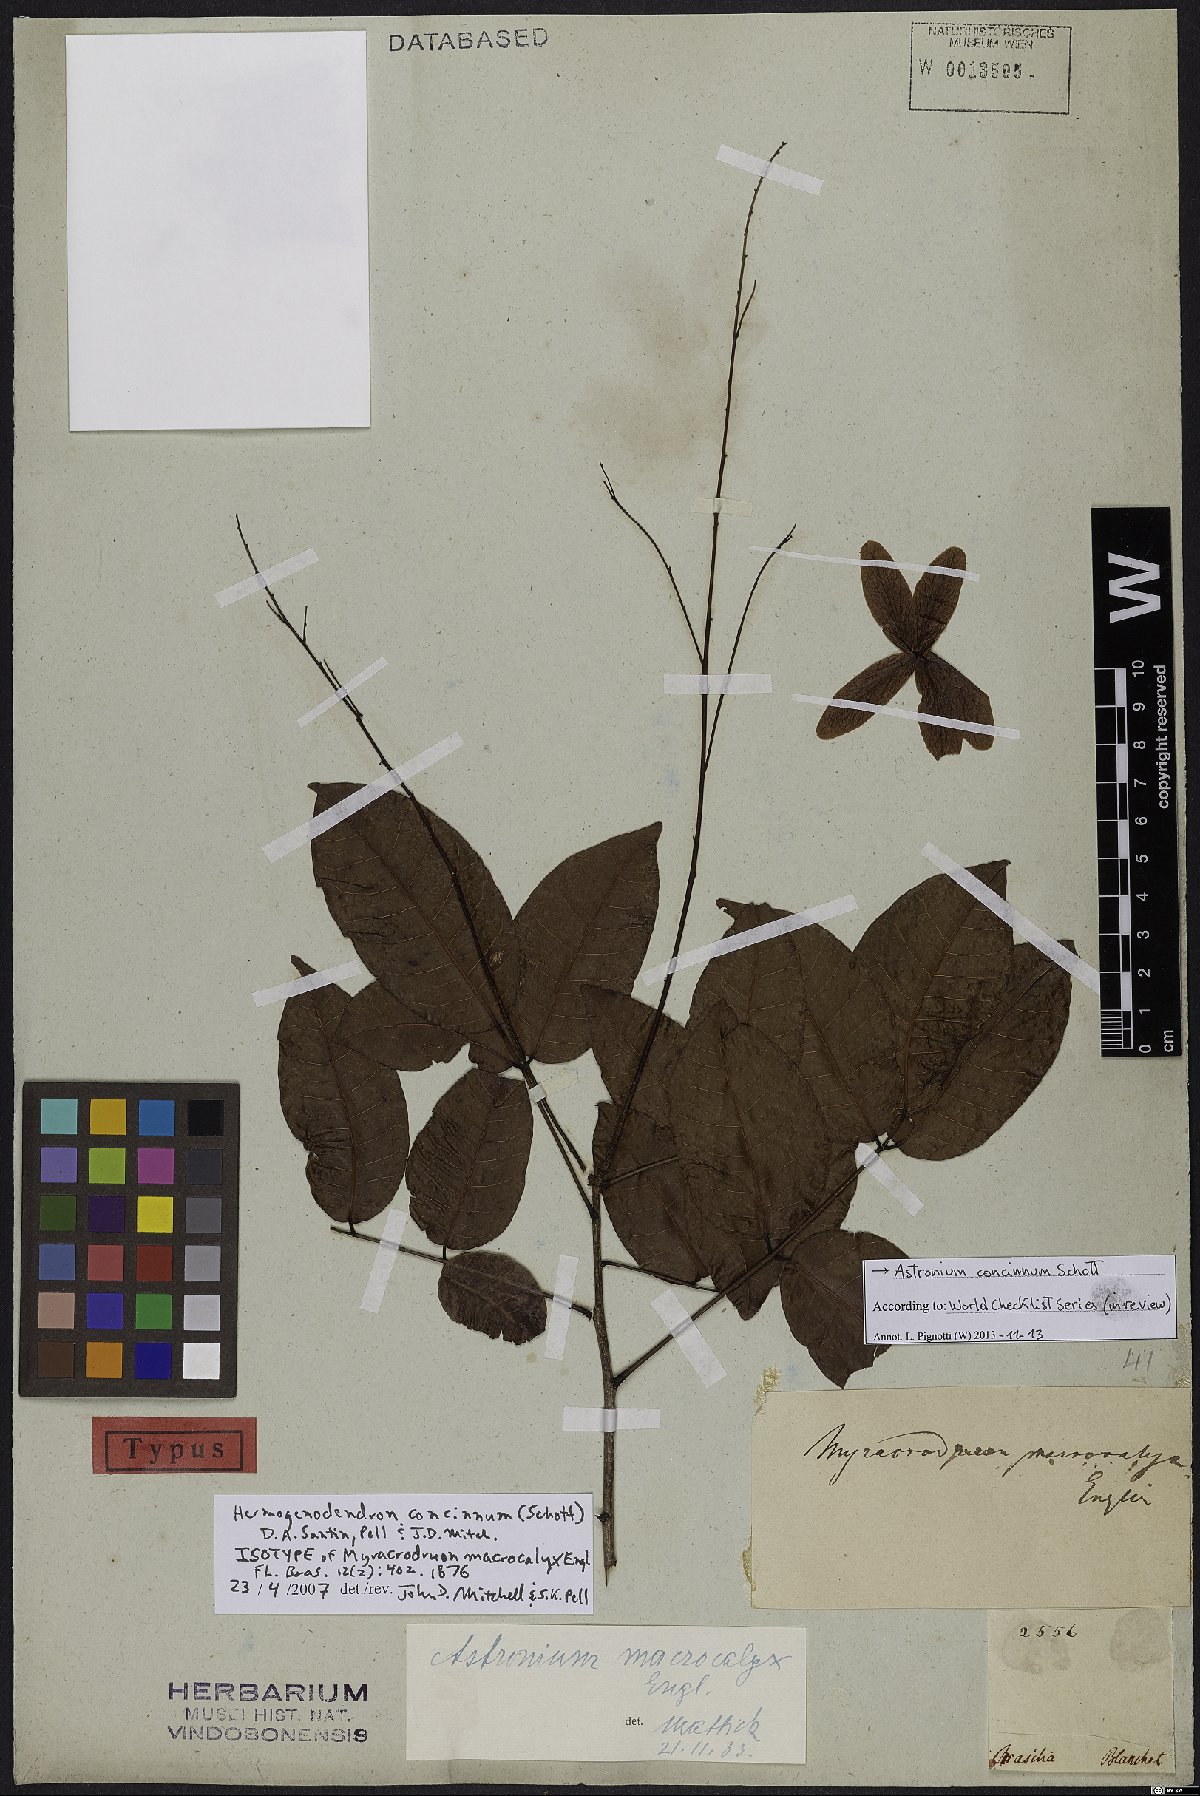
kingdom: Plantae
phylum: Tracheophyta
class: Magnoliopsida
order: Sapindales
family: Anacardiaceae
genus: Astronium
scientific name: Astronium concinnum
